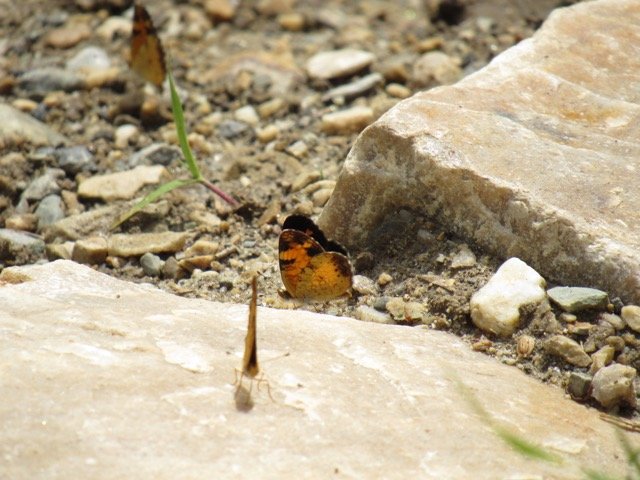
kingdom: Animalia
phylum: Arthropoda
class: Insecta
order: Lepidoptera
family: Nymphalidae
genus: Phyciodes
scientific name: Phyciodes tharos
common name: Pearl Crescent
